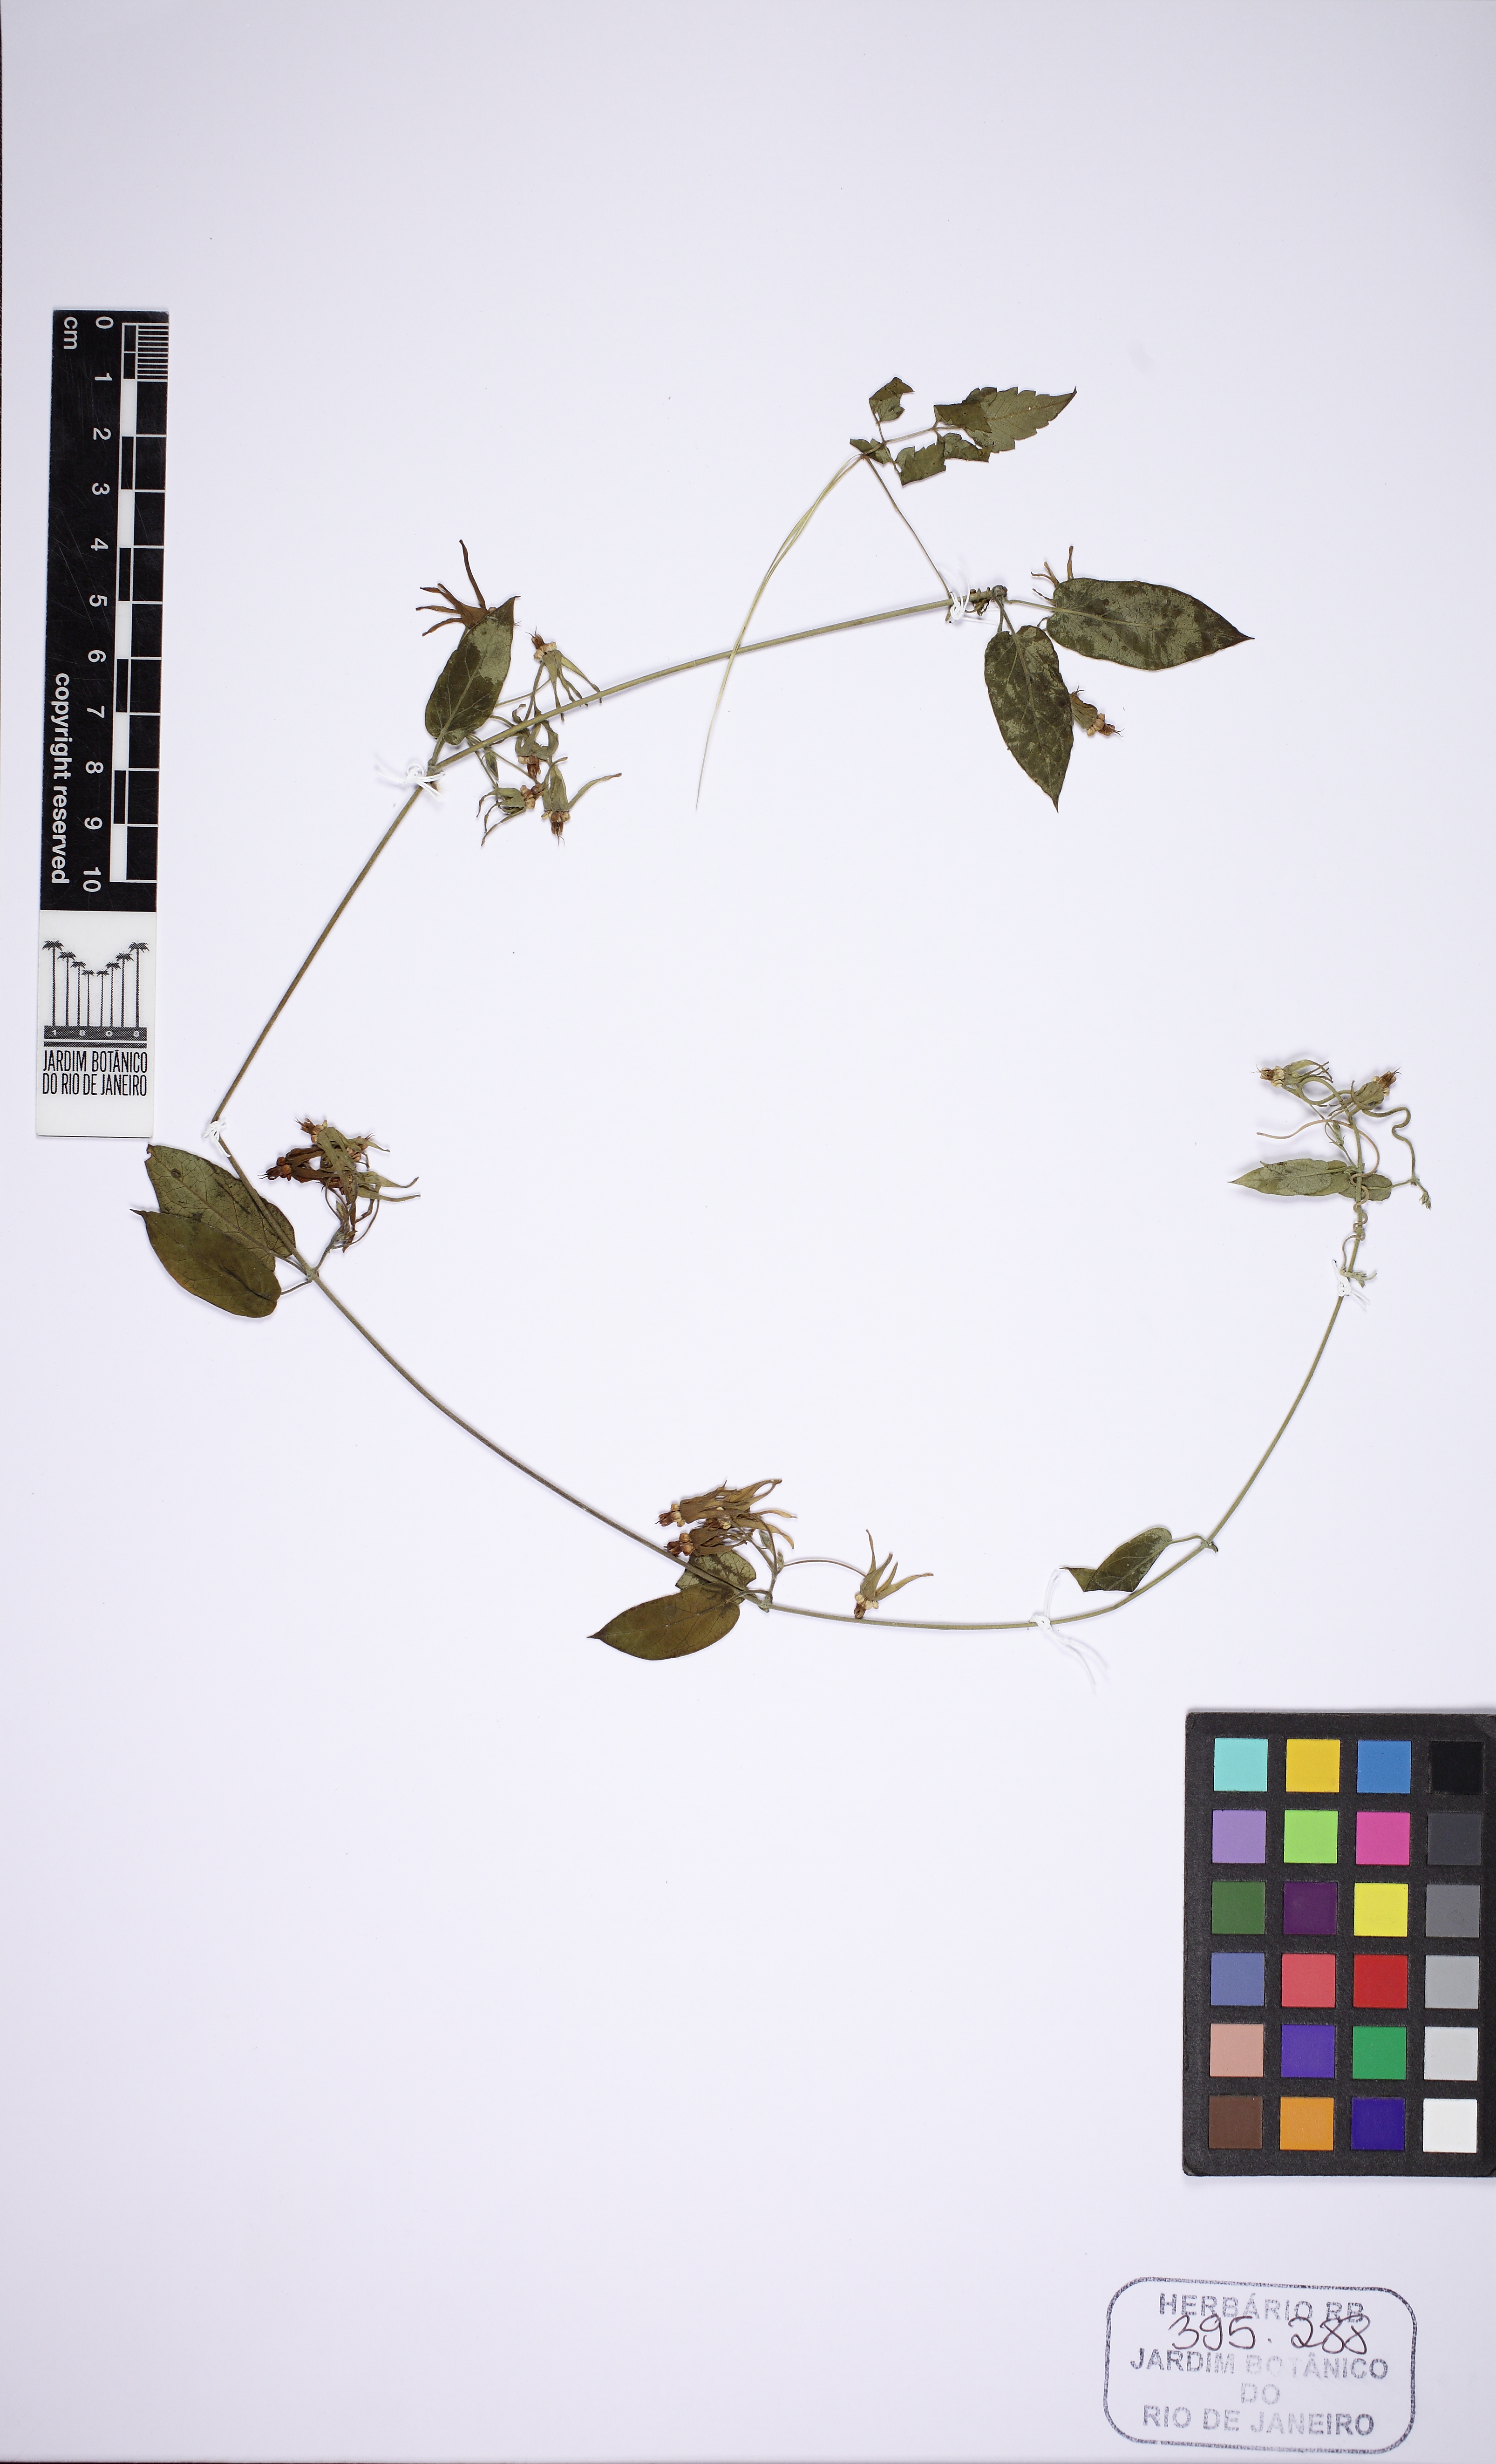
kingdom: Plantae
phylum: Tracheophyta
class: Magnoliopsida
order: Gentianales
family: Apocynaceae
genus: Oxypetalum
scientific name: Oxypetalum banksii
